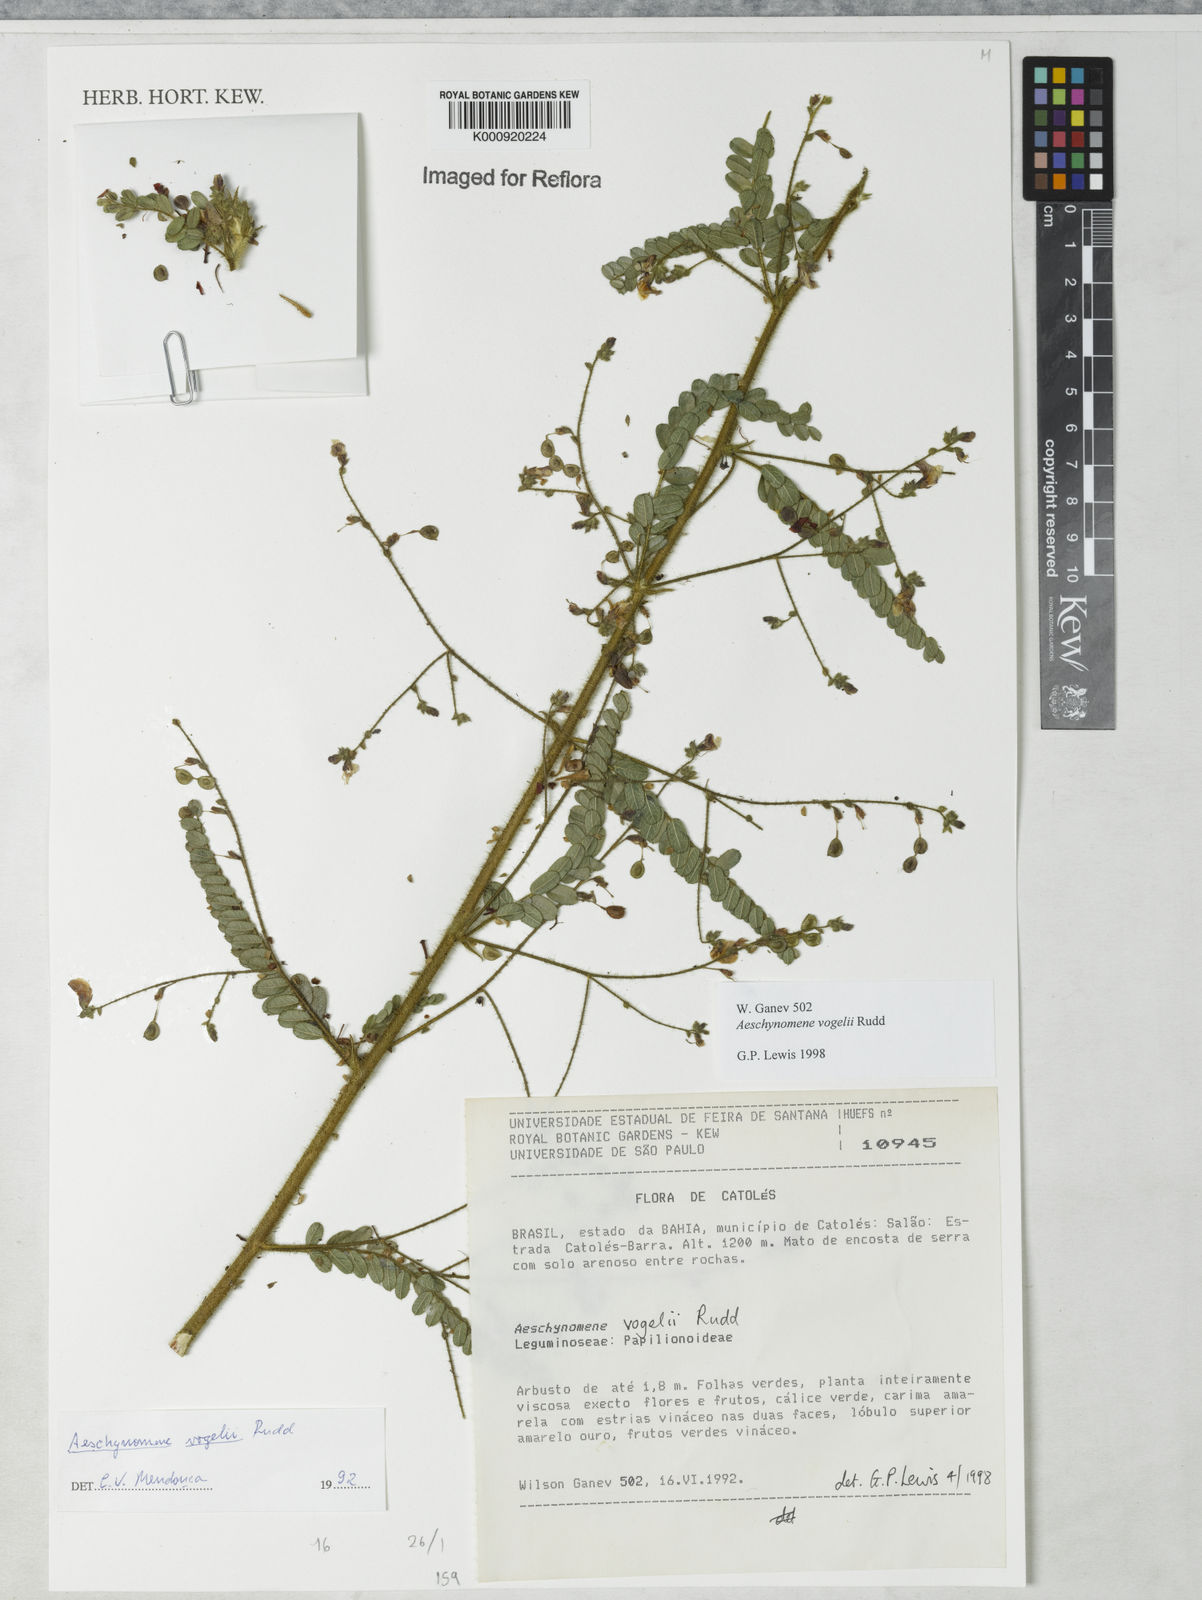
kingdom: Plantae
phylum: Tracheophyta
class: Magnoliopsida
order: Fabales
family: Fabaceae
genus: Ctenodon
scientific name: Ctenodon vogelii
